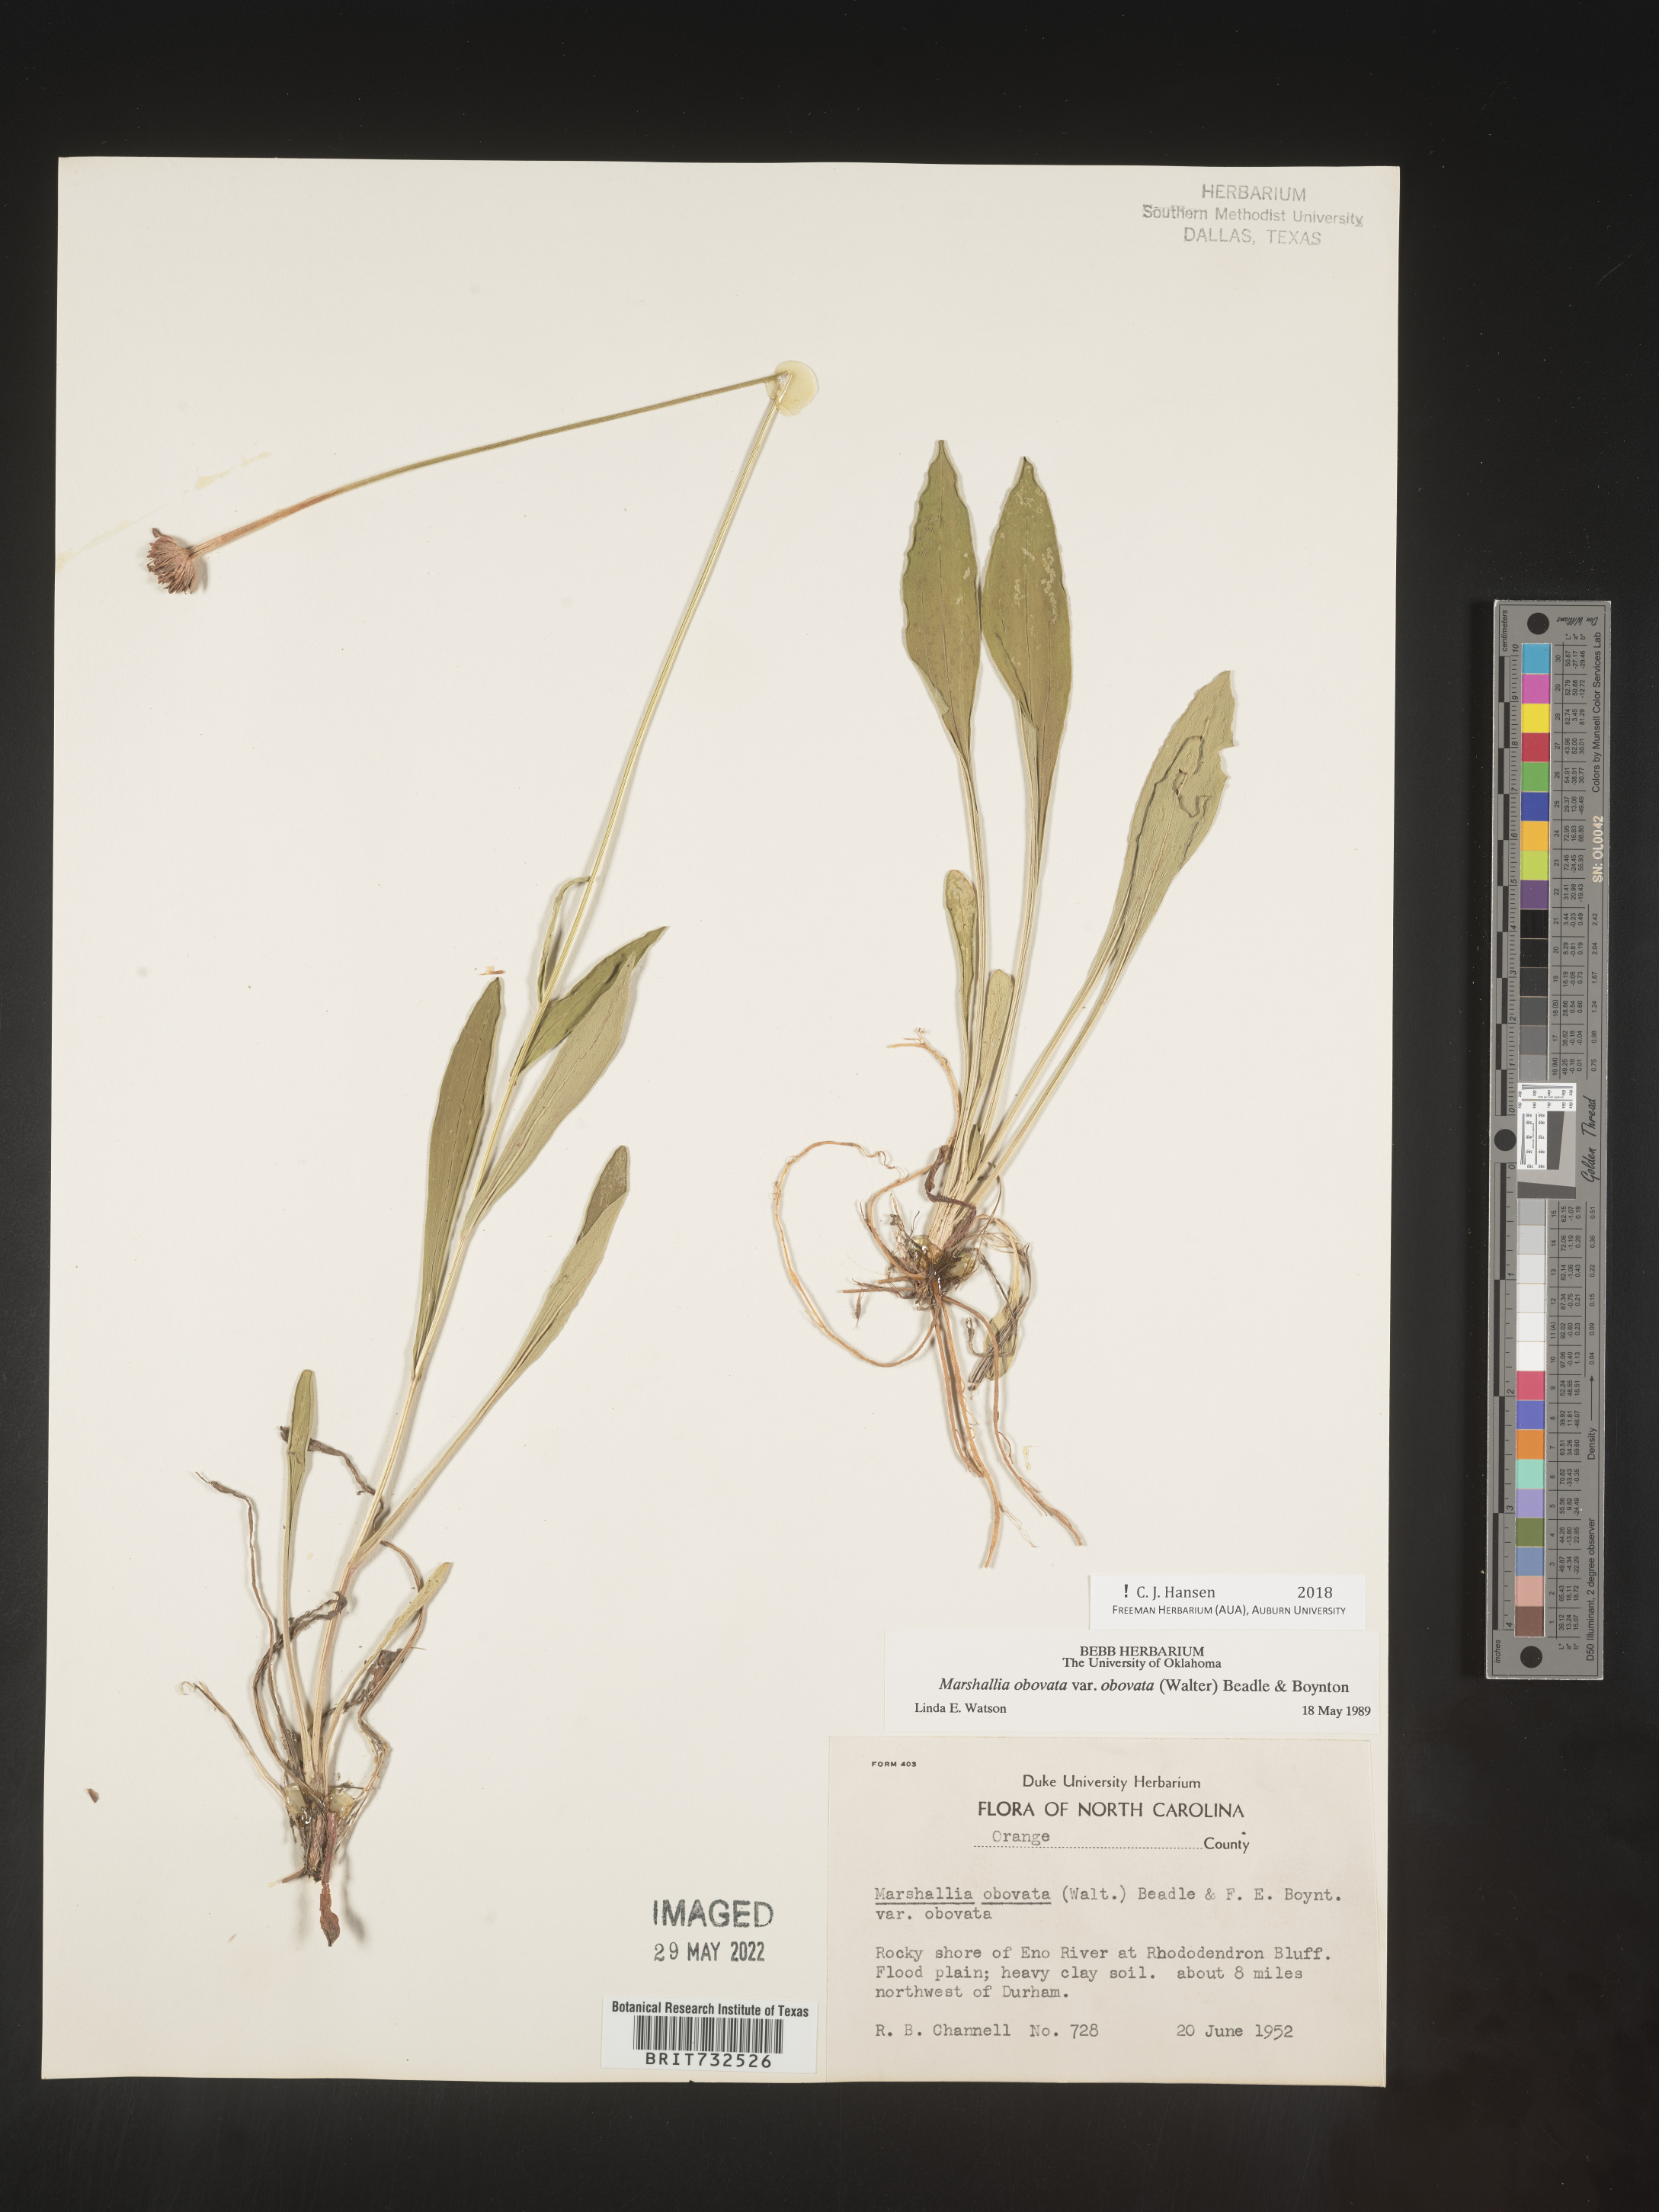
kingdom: Plantae
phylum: Tracheophyta
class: Magnoliopsida
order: Asterales
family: Asteraceae
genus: Marshallia
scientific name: Marshallia obovata
